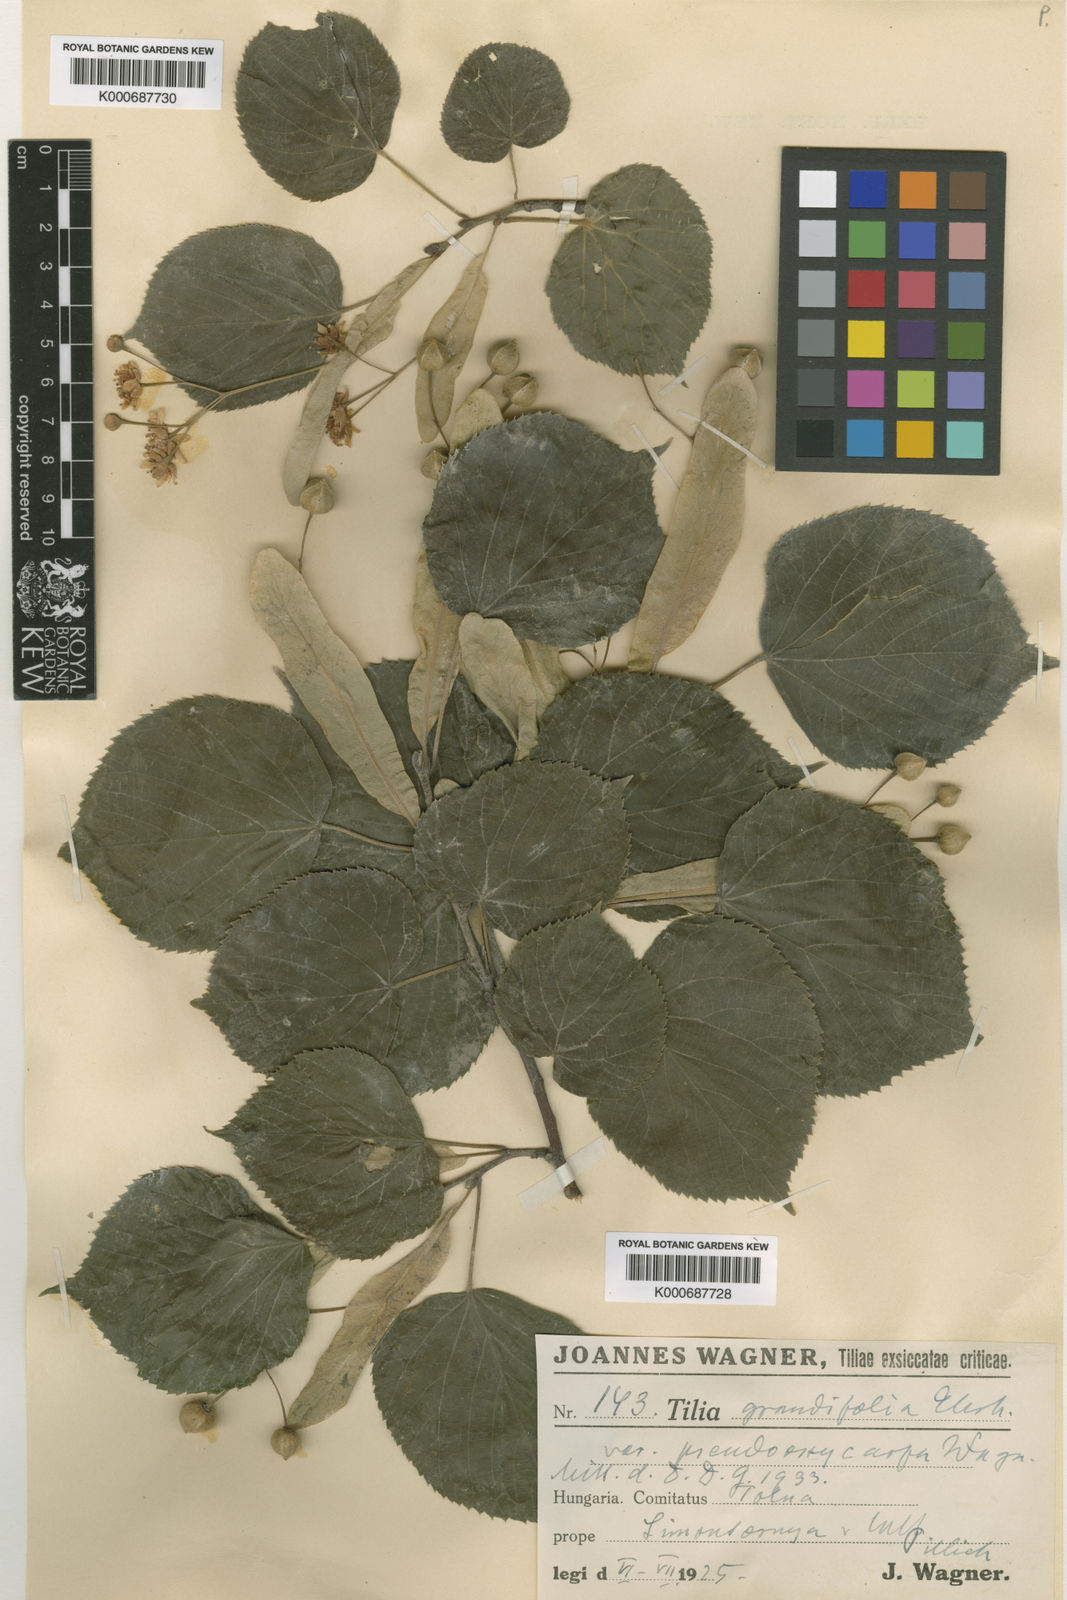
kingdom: Plantae
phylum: Tracheophyta
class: Magnoliopsida
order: Malvales
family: Malvaceae
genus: Tilia
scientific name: Tilia platyphyllos
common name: Large-leaved lime
